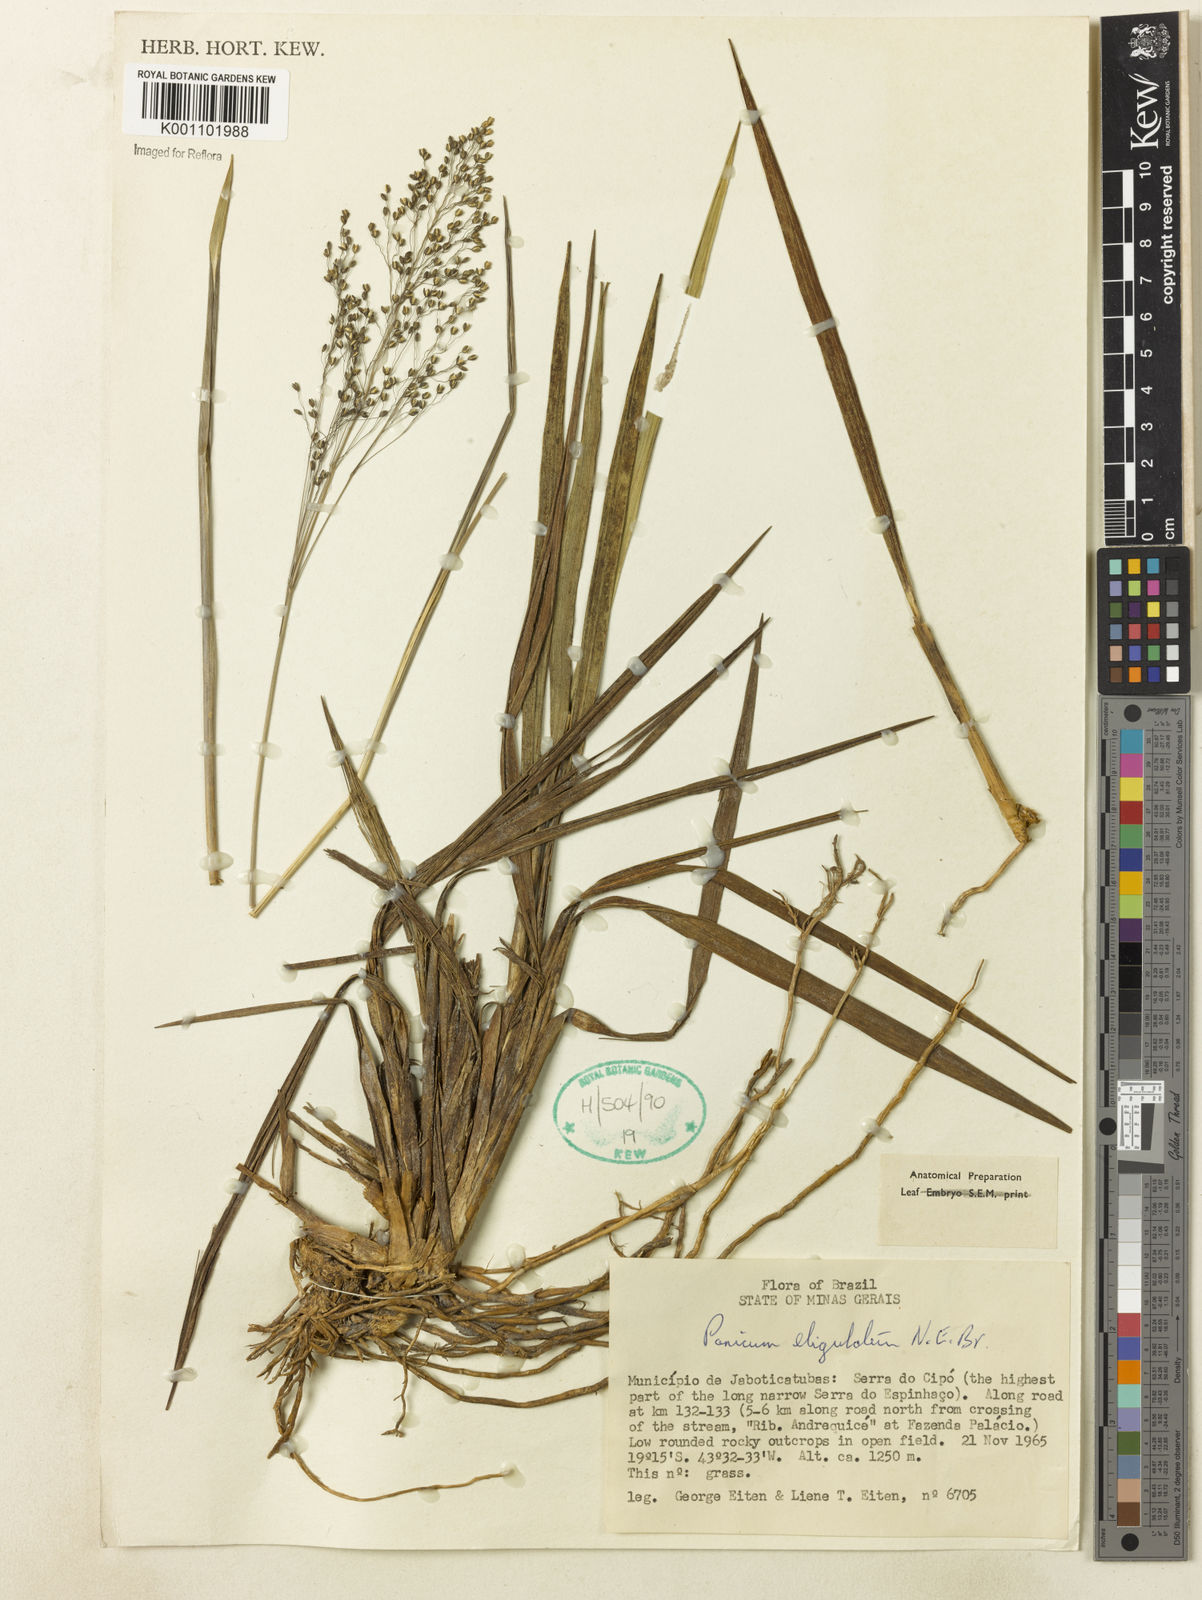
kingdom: Plantae
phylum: Tracheophyta
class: Liliopsida
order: Poales
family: Poaceae
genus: Apochloa
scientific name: Apochloa eligulata
